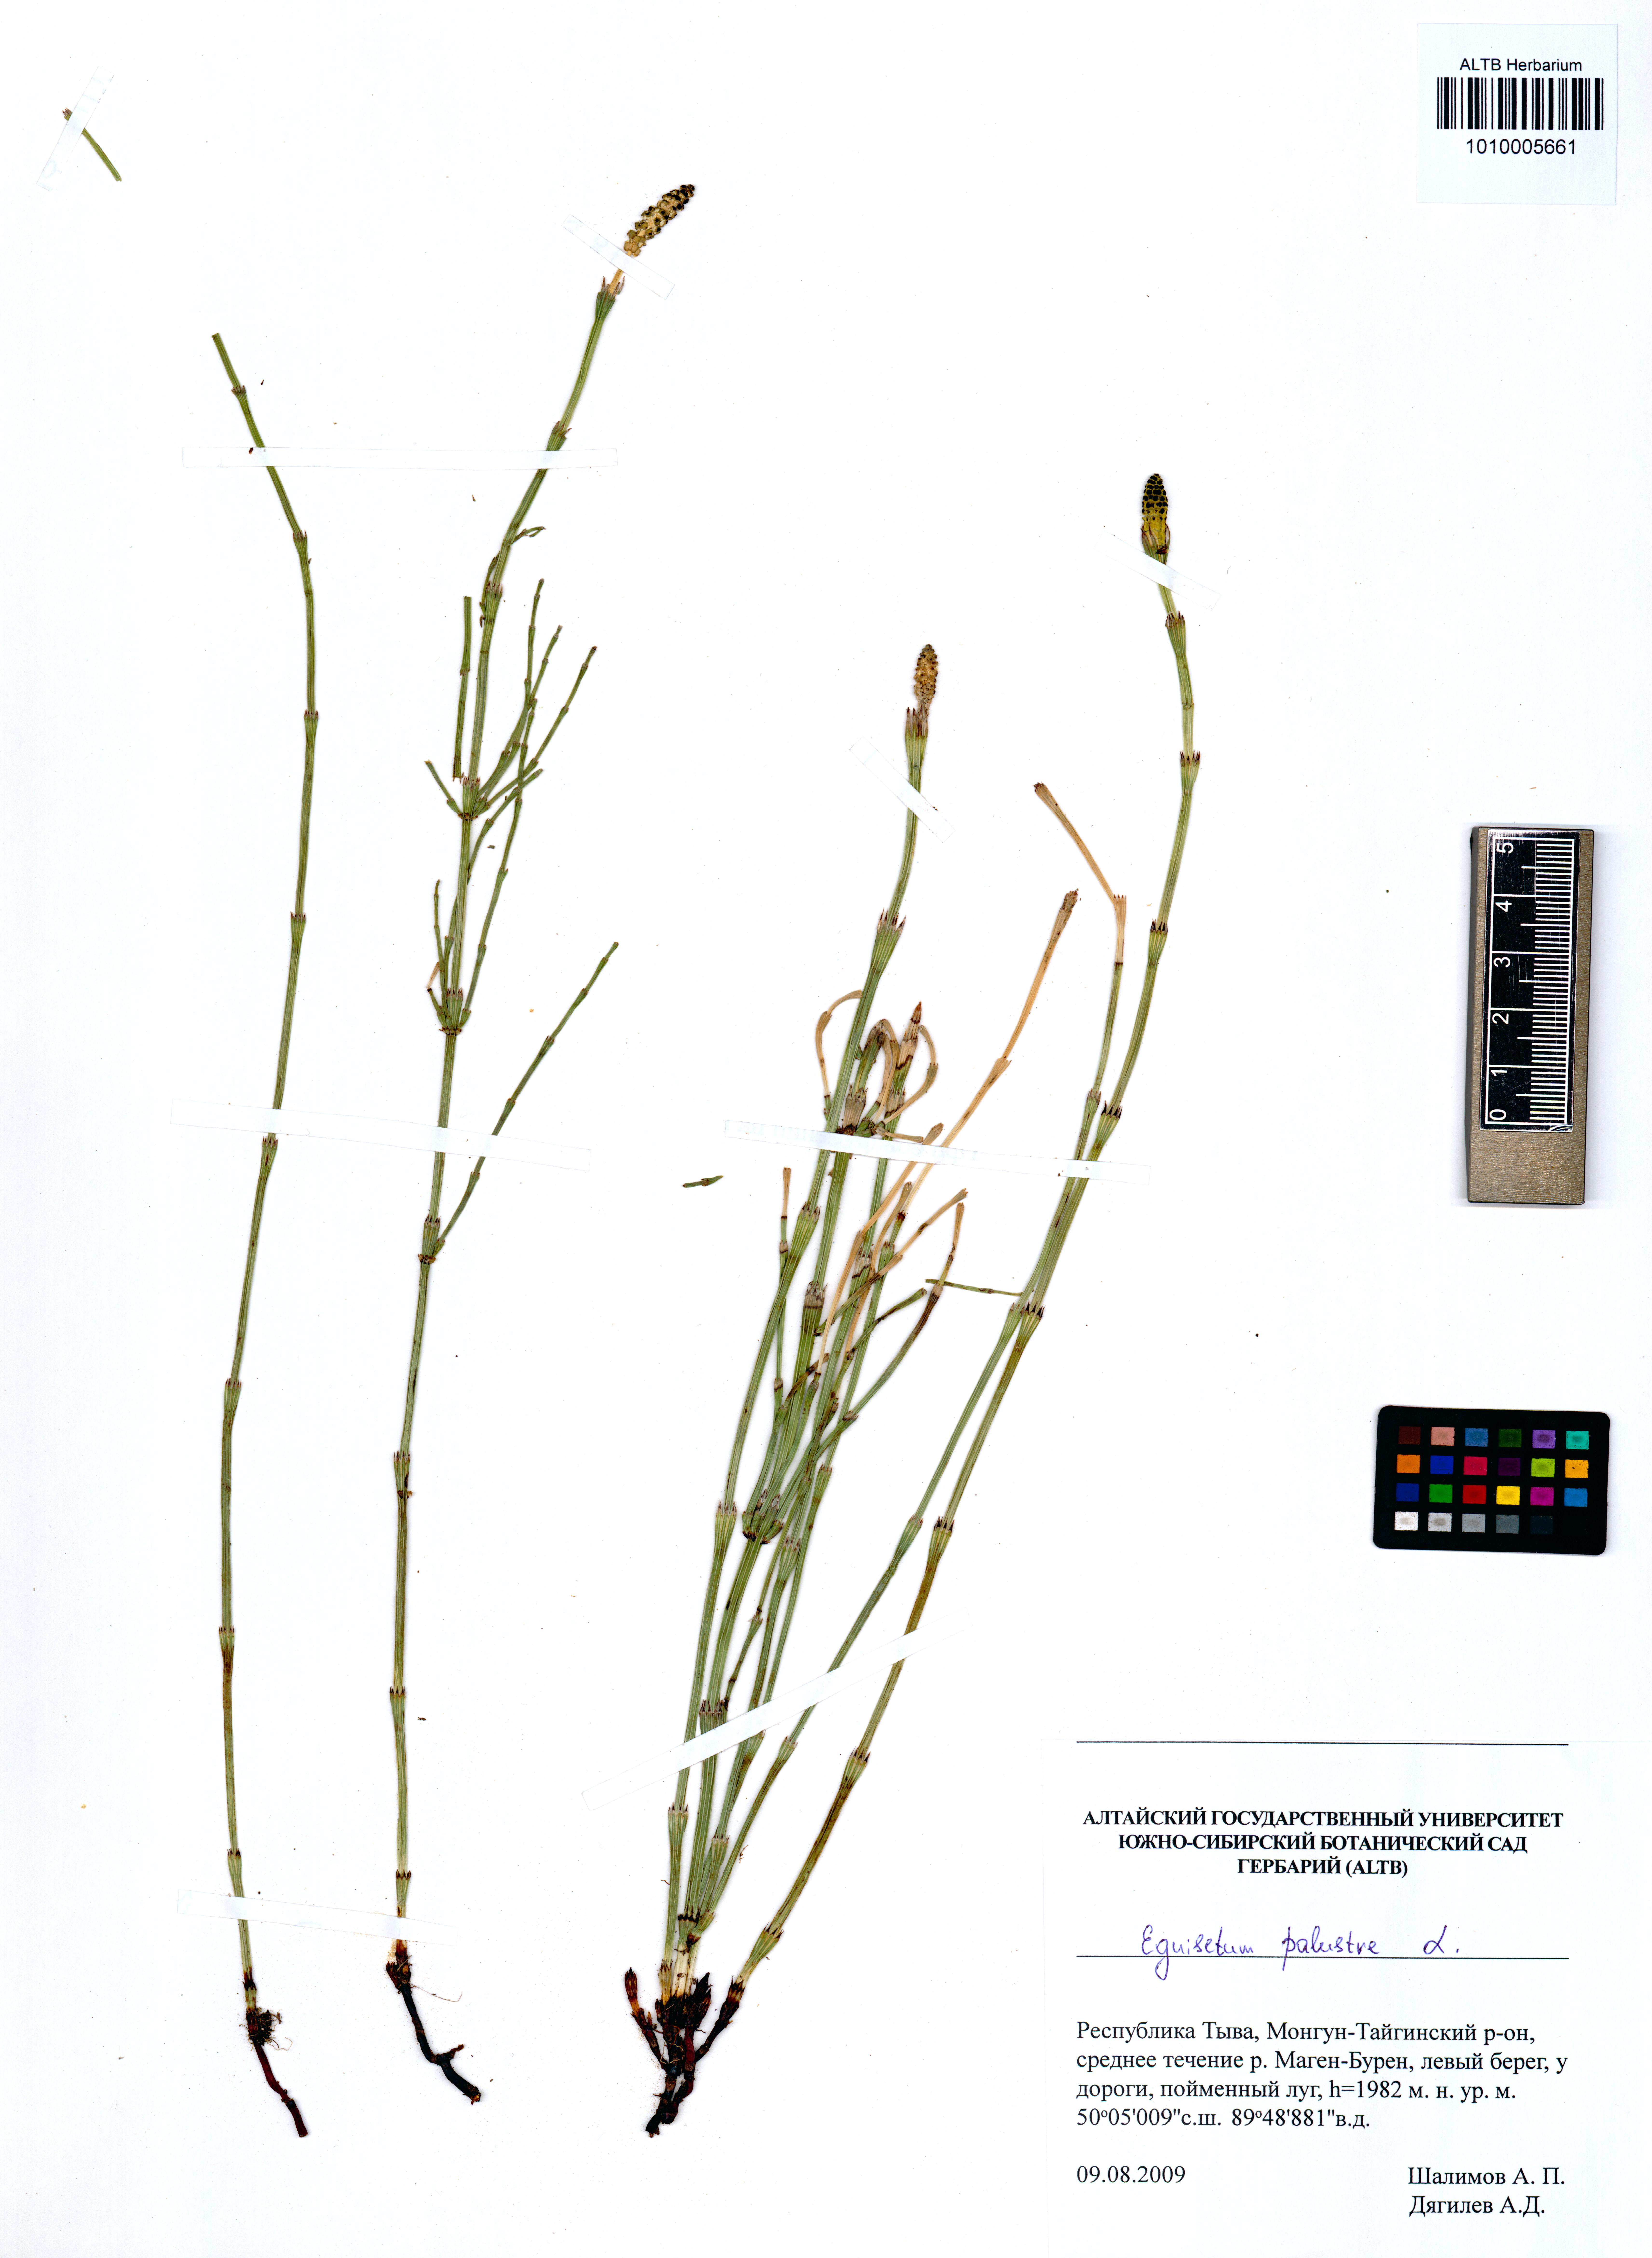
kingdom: Plantae
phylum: Tracheophyta
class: Polypodiopsida
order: Equisetales
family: Equisetaceae
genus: Equisetum
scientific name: Equisetum palustre
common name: Marsh horsetail
